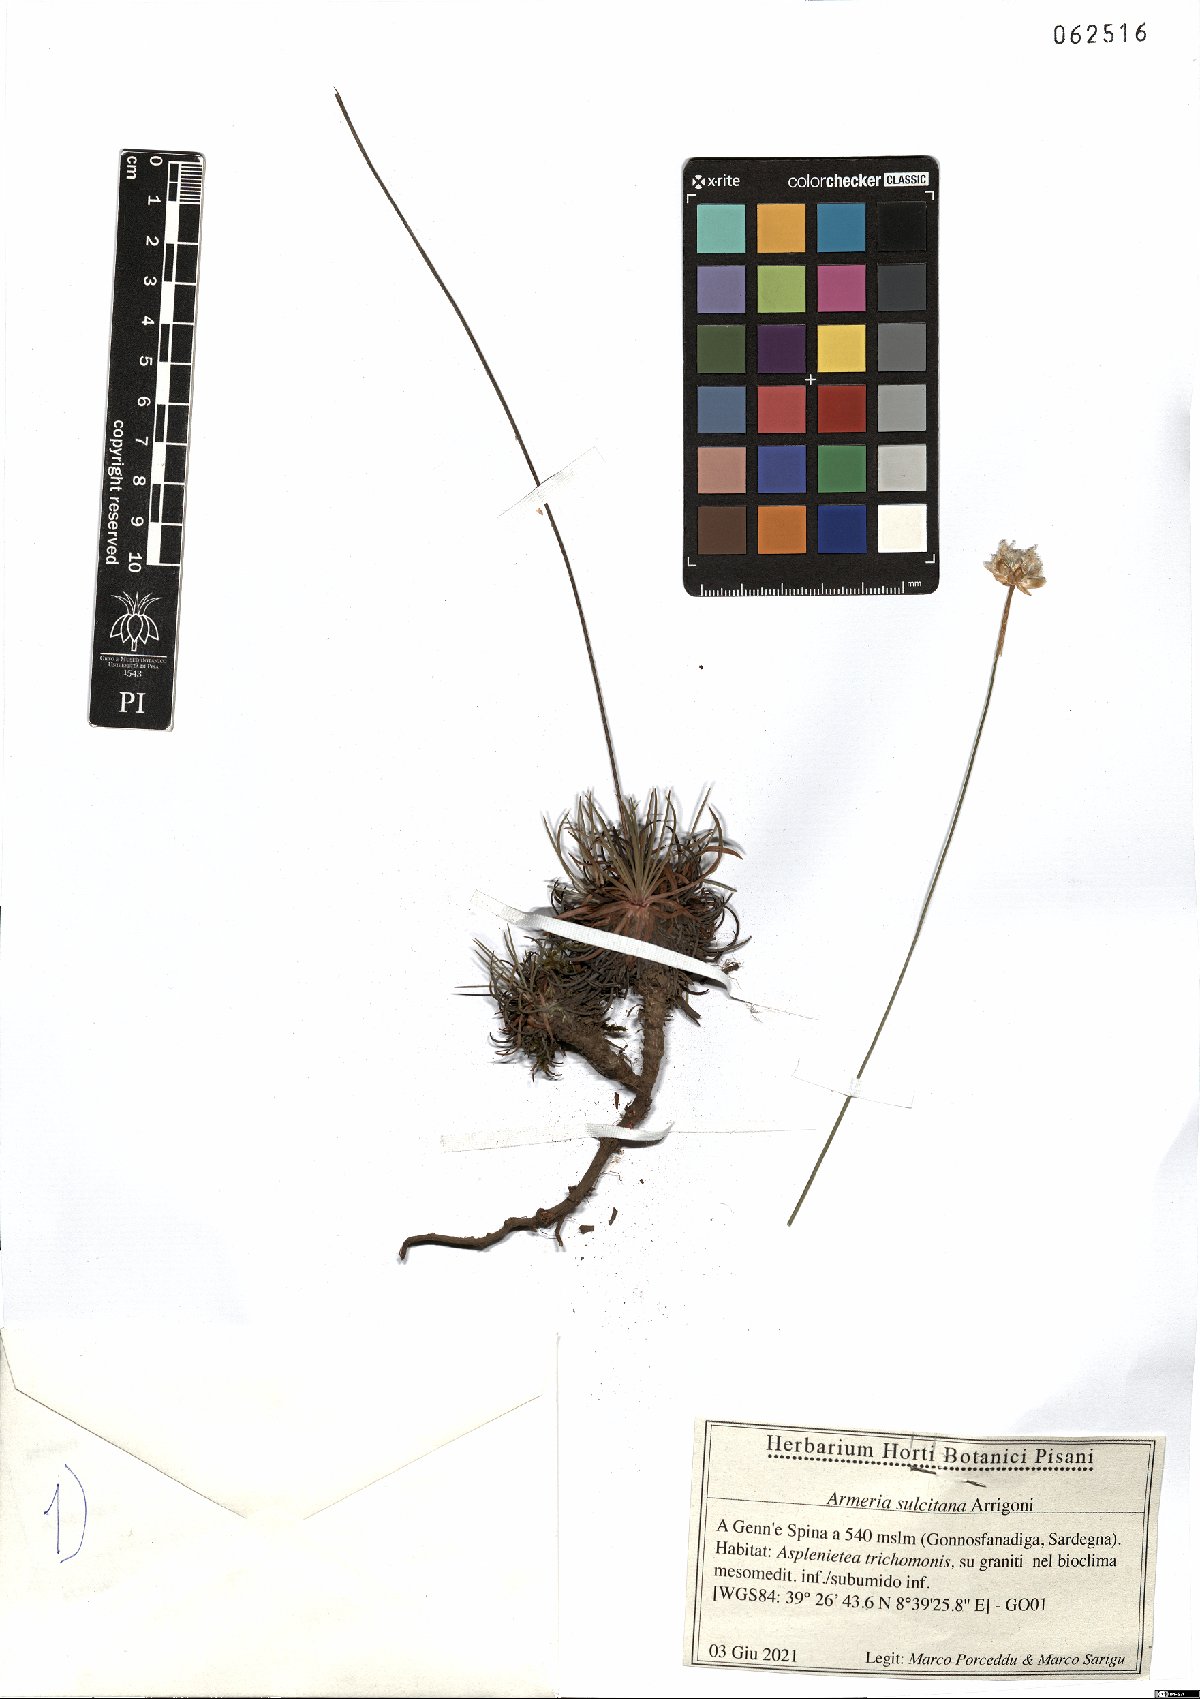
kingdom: Plantae
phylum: Tracheophyta
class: Magnoliopsida
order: Caryophyllales
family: Plumbaginaceae
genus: Armeria
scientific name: Armeria sulcitana
